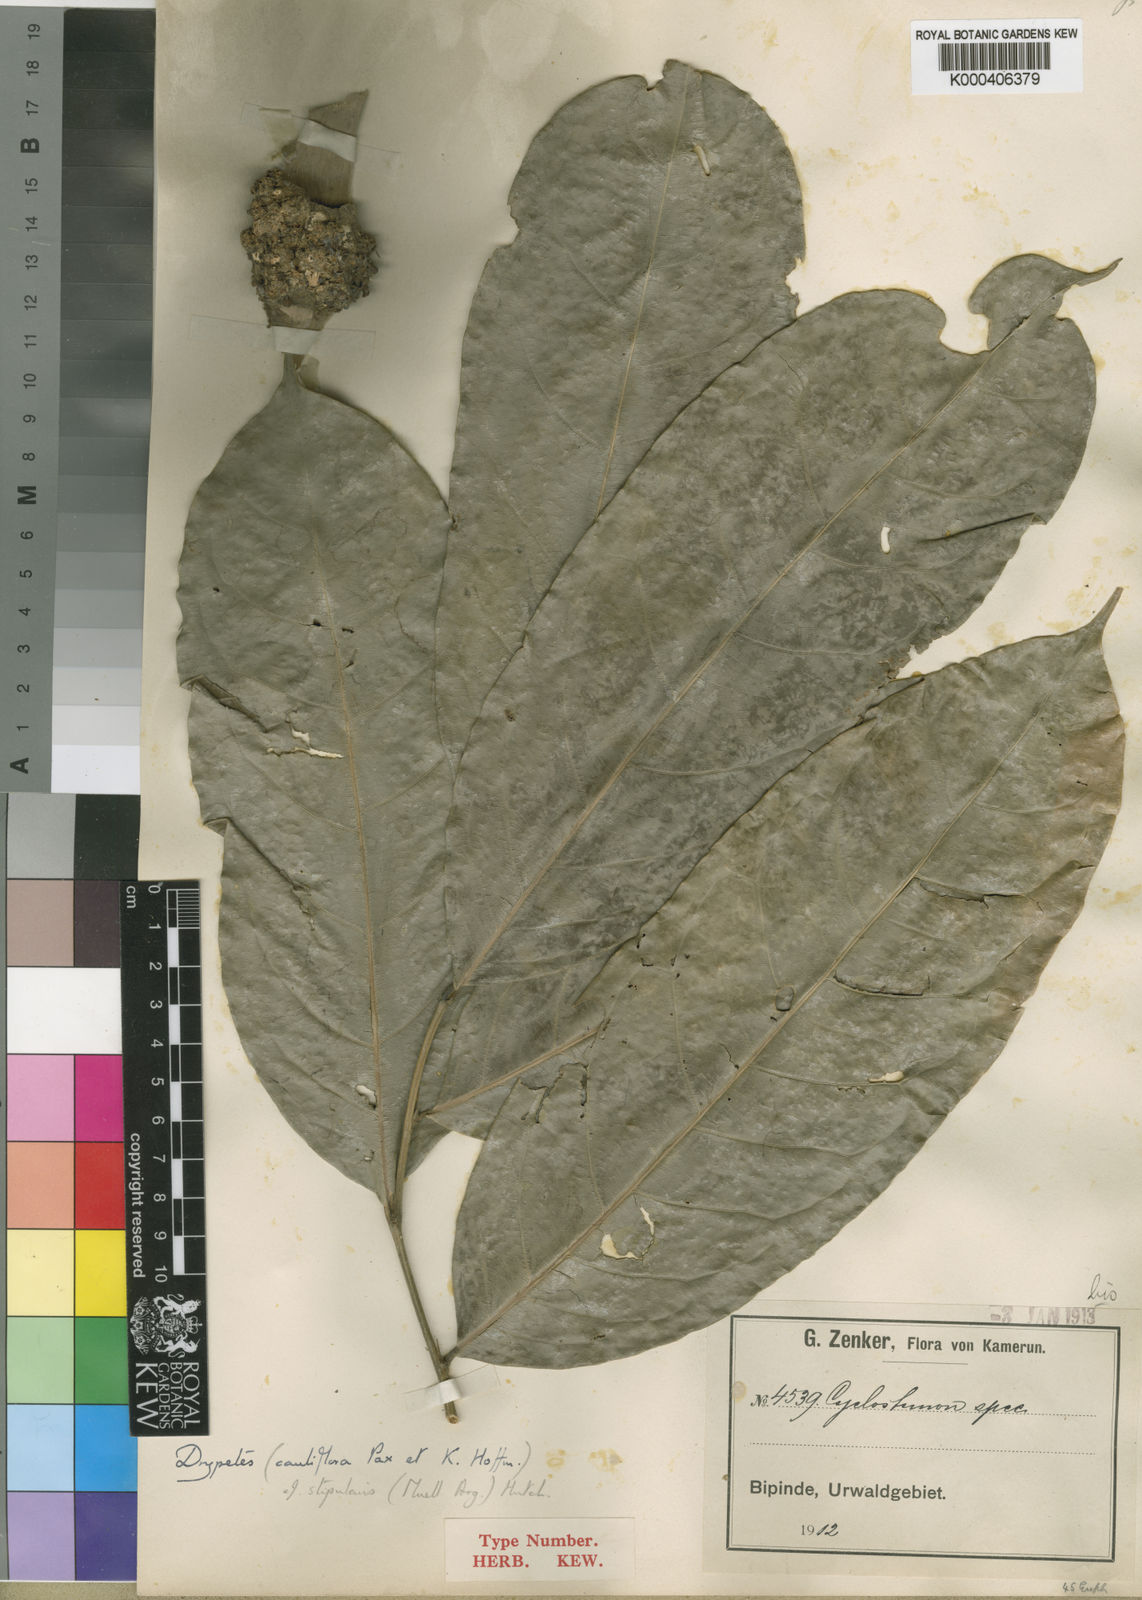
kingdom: Plantae
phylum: Tracheophyta
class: Magnoliopsida
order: Malpighiales
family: Putranjivaceae
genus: Drypetes
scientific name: Drypetes
